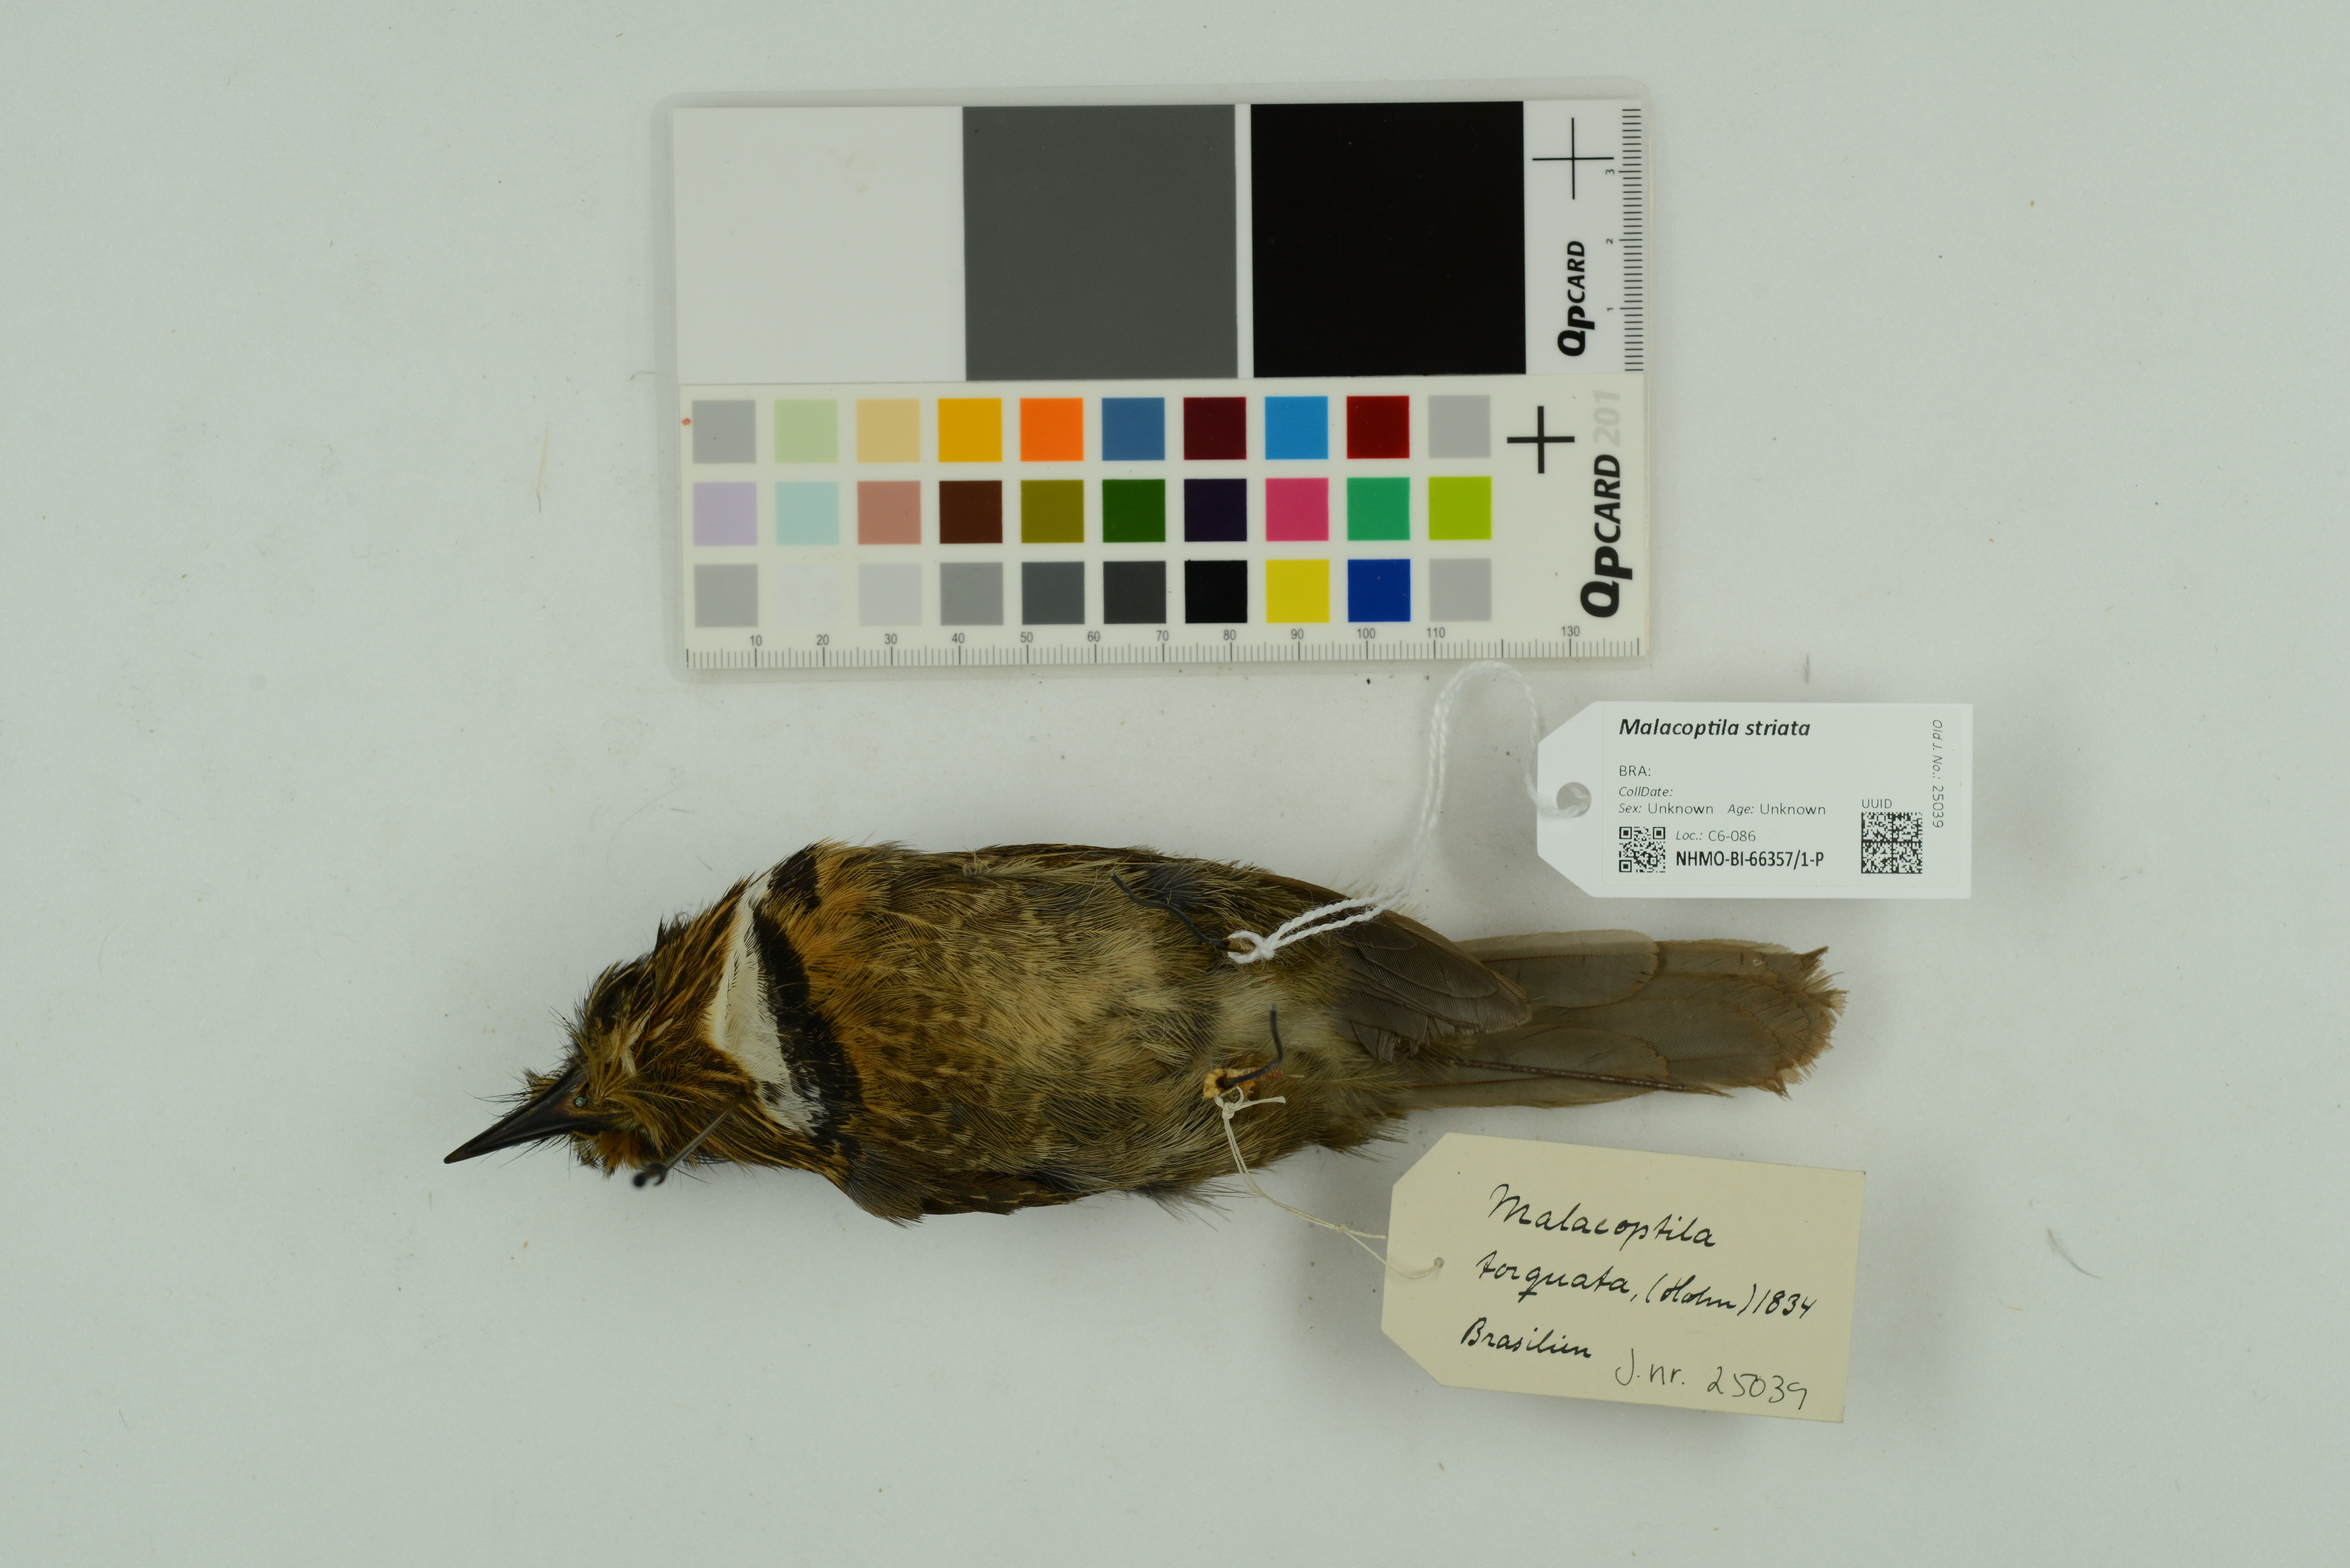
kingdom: Animalia
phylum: Chordata
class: Aves
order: Piciformes
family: Bucconidae
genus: Malacoptila
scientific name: Malacoptila striata
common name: Crescent-chested puffbird
